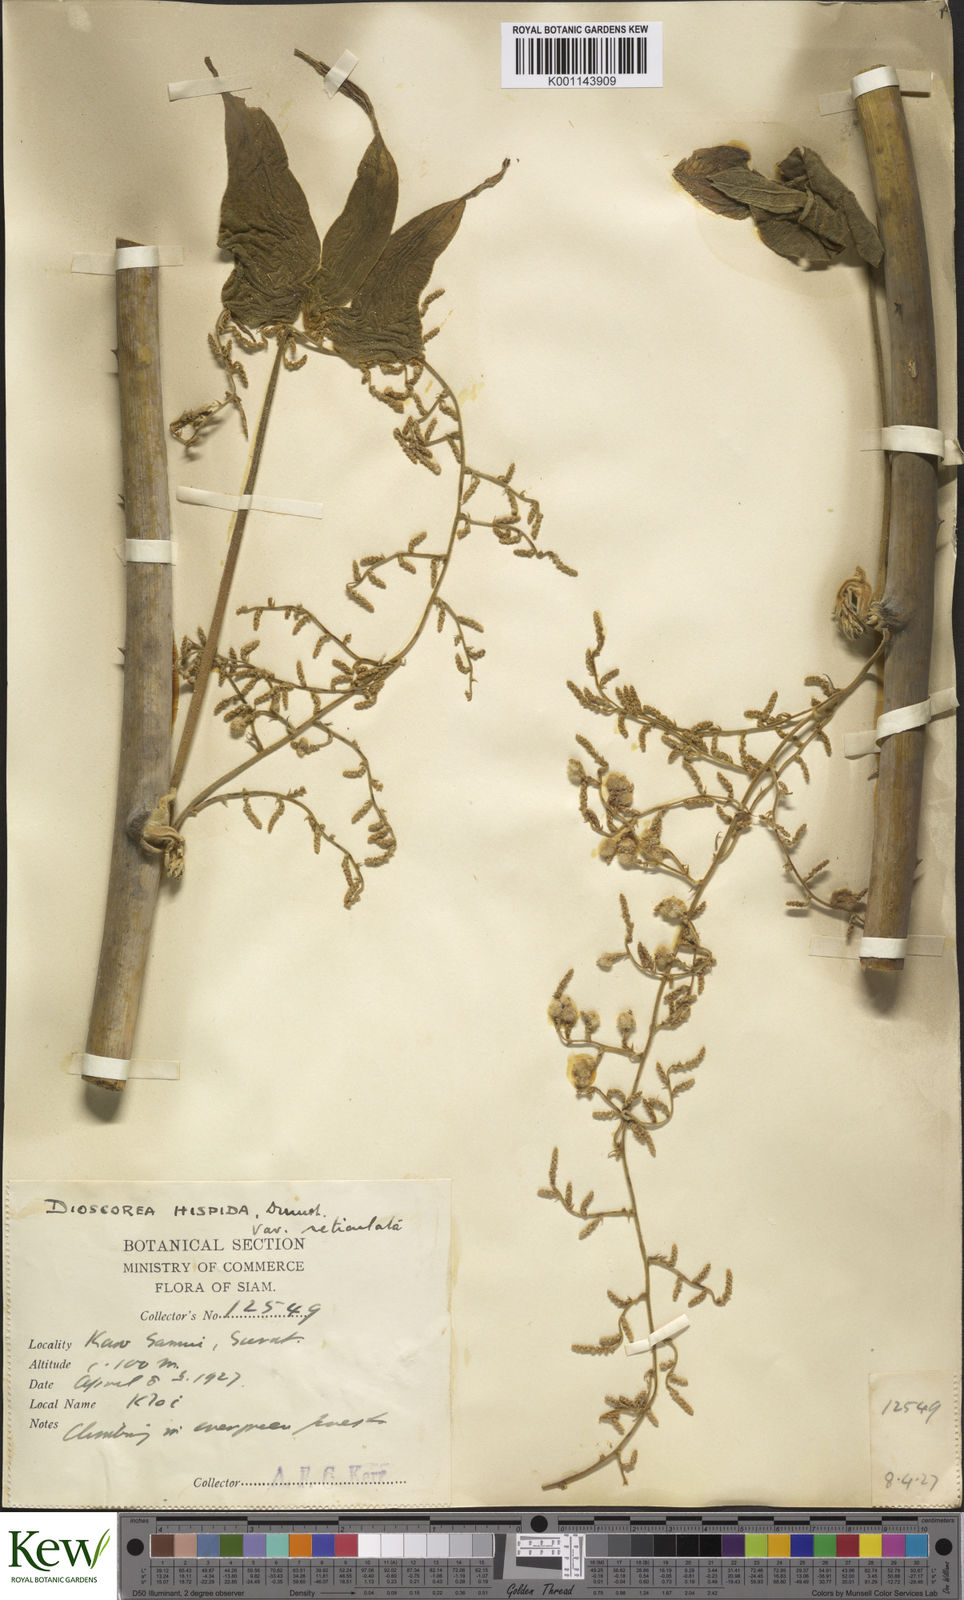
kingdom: Plantae
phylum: Tracheophyta
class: Liliopsida
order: Dioscoreales
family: Dioscoreaceae
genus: Dioscorea
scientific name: Dioscorea hispida
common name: Asiatic bitter yam
